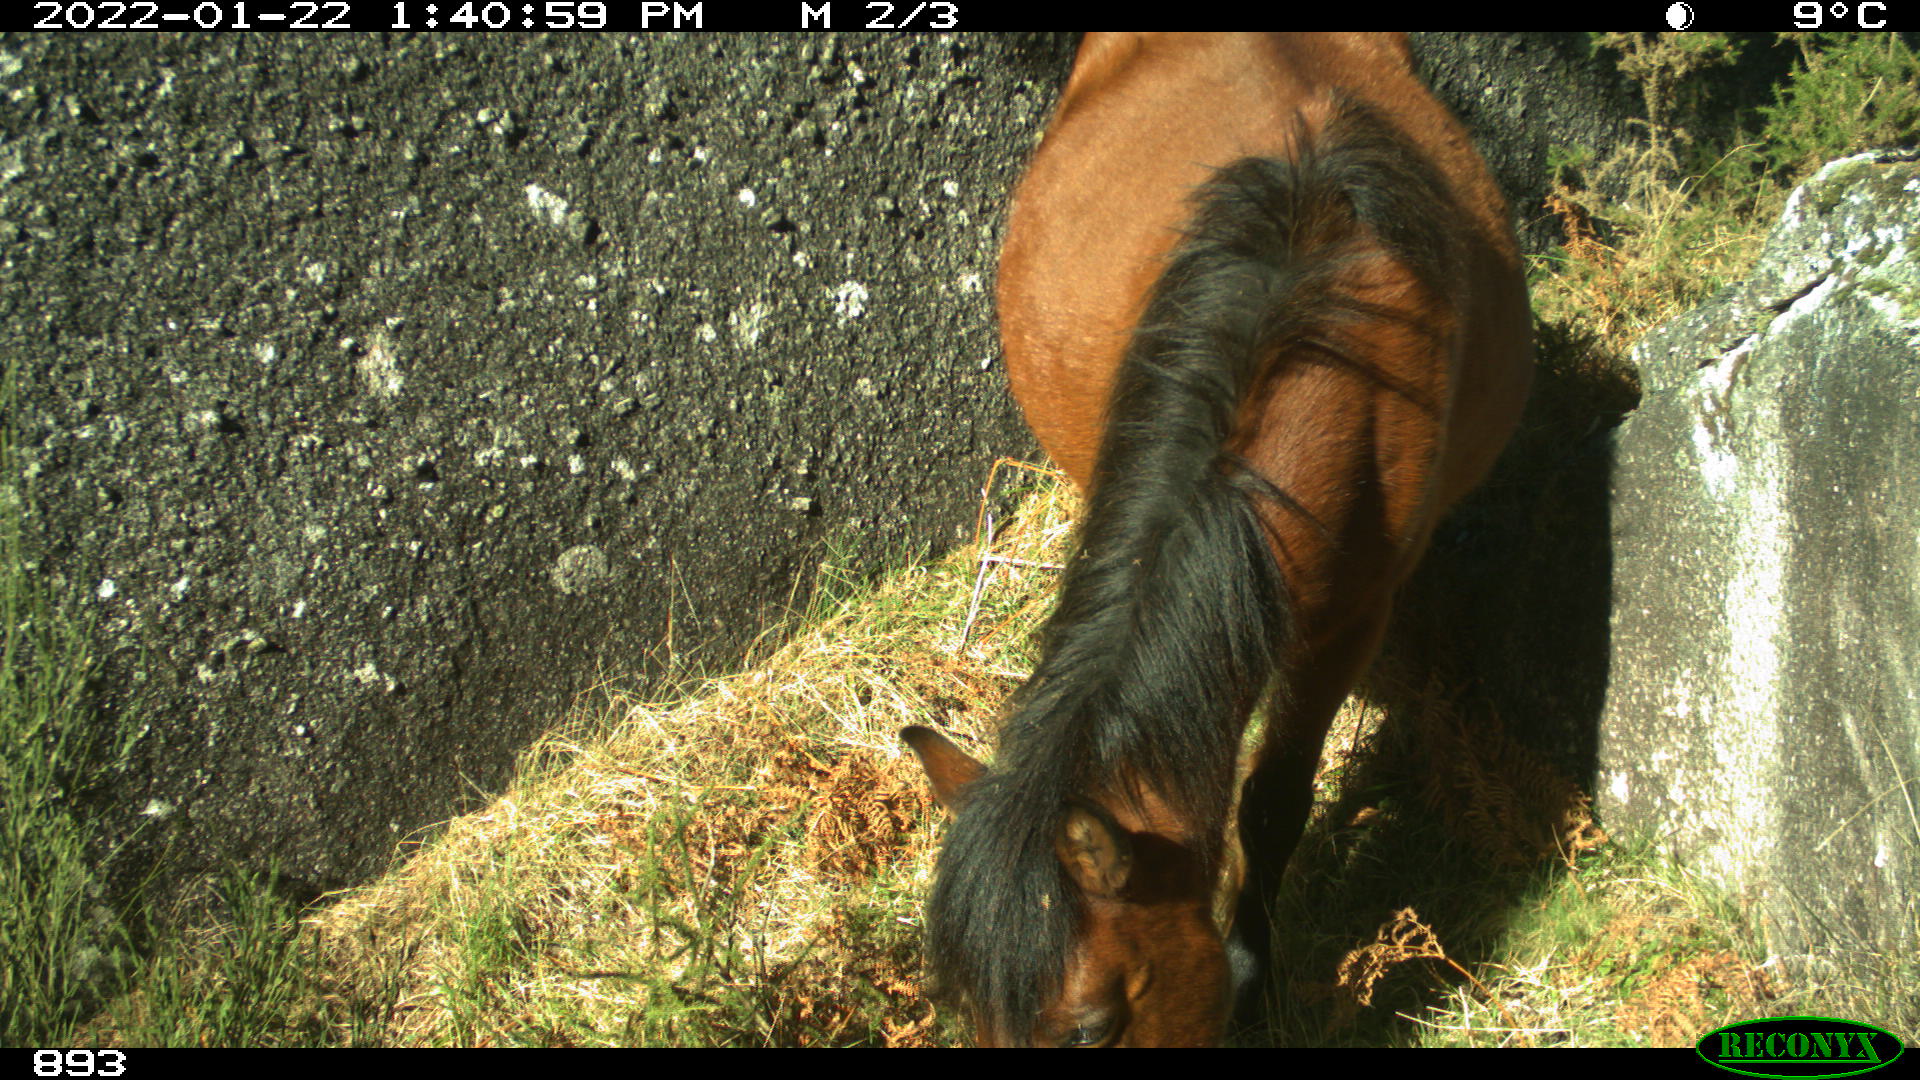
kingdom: Animalia
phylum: Chordata
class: Mammalia
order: Perissodactyla
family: Equidae
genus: Equus
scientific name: Equus caballus
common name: Horse
